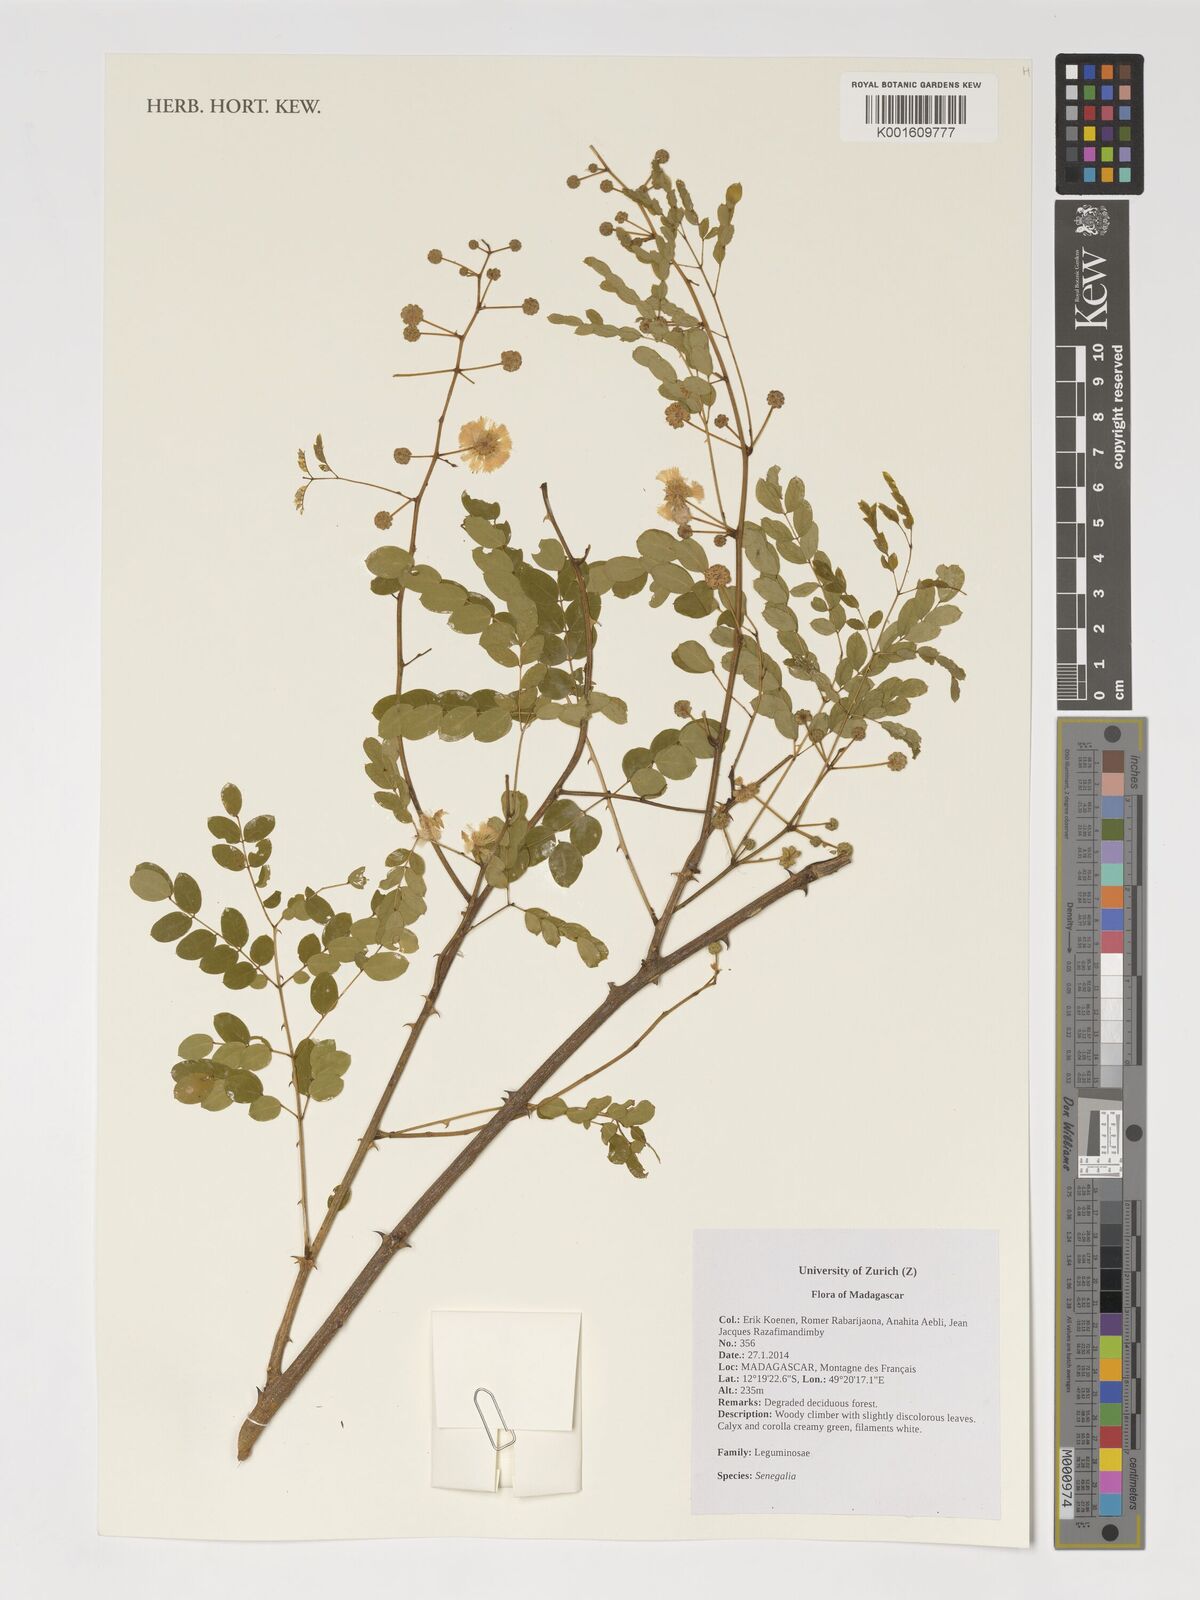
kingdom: Plantae
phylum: Tracheophyta
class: Magnoliopsida
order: Fabales
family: Fabaceae
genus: Senegalia
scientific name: Senegalia
